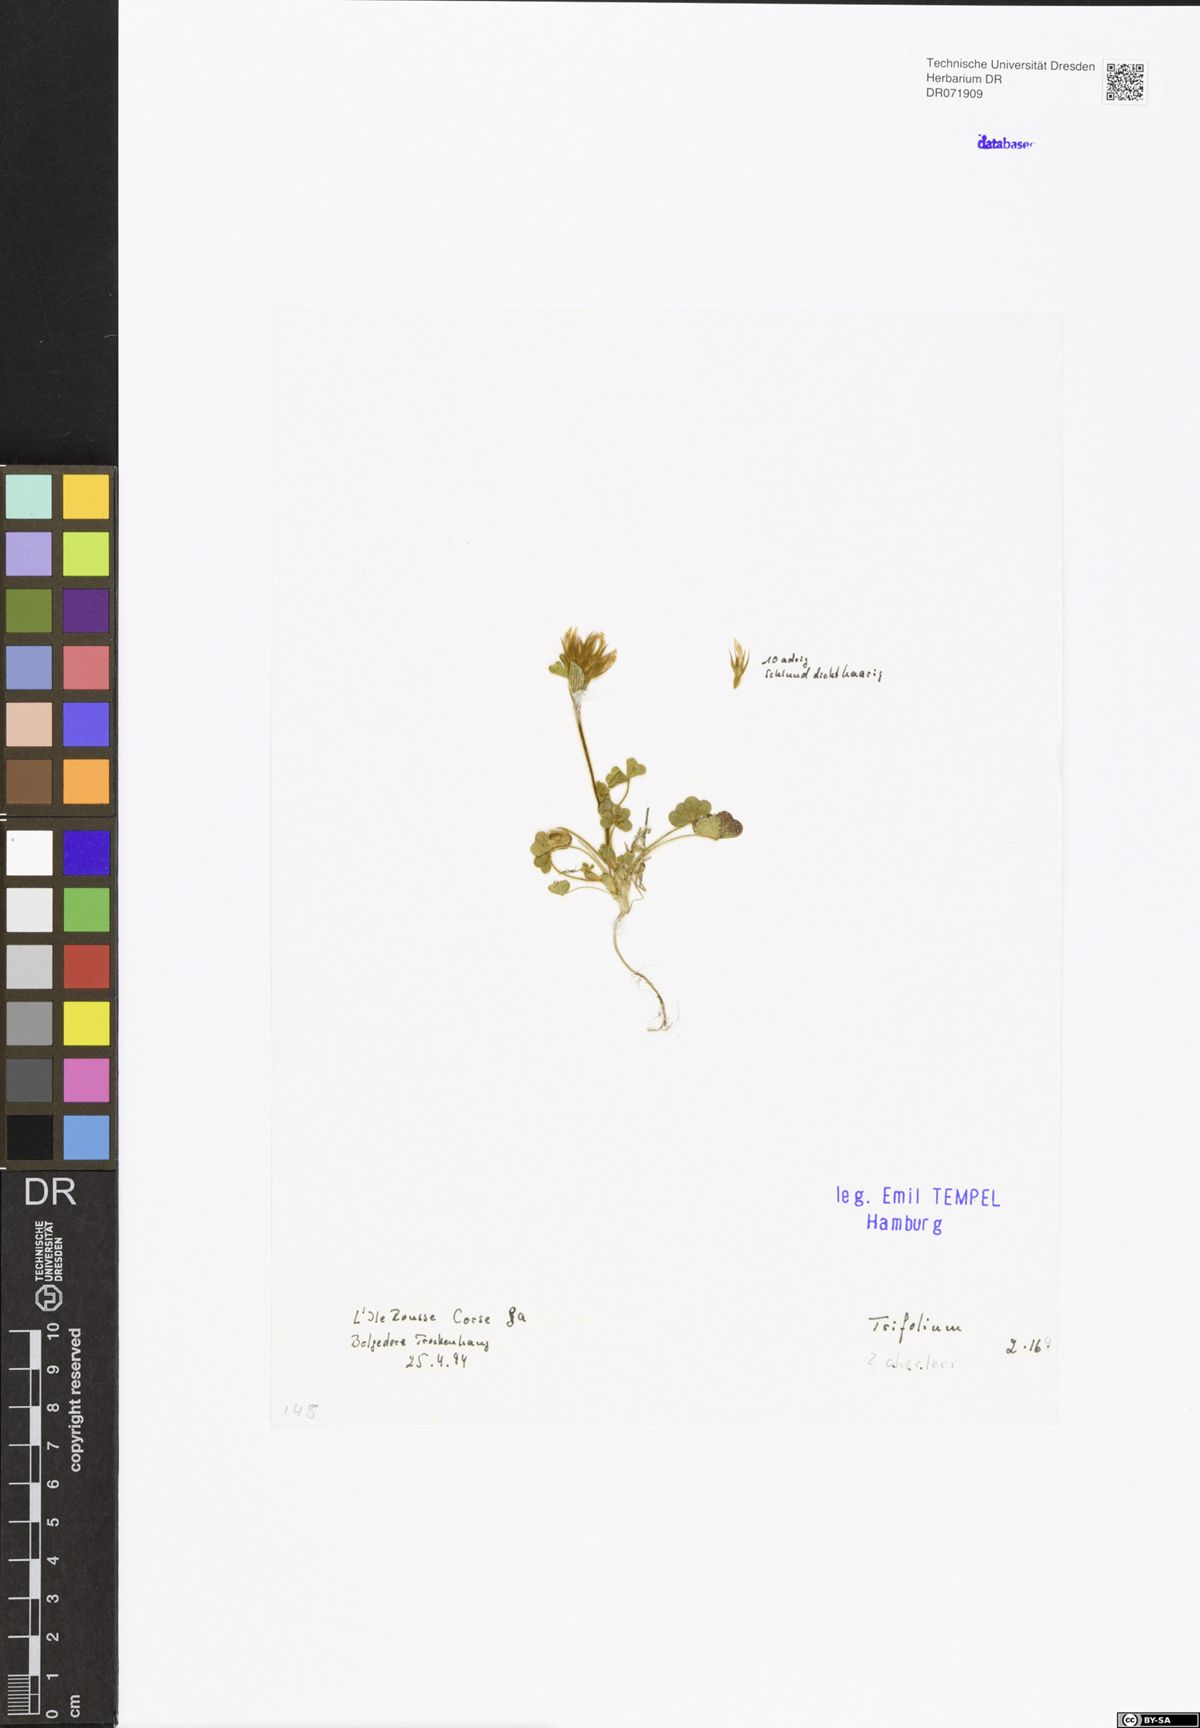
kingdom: Plantae
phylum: Tracheophyta
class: Magnoliopsida
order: Fabales
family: Fabaceae
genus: Trifolium
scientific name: Trifolium cherleri
